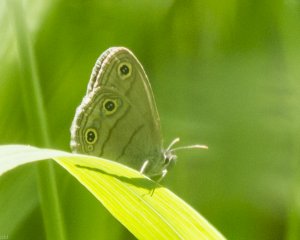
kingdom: Animalia
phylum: Arthropoda
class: Insecta
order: Lepidoptera
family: Nymphalidae
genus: Euptychia
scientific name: Euptychia cymela
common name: Little Wood Satyr
